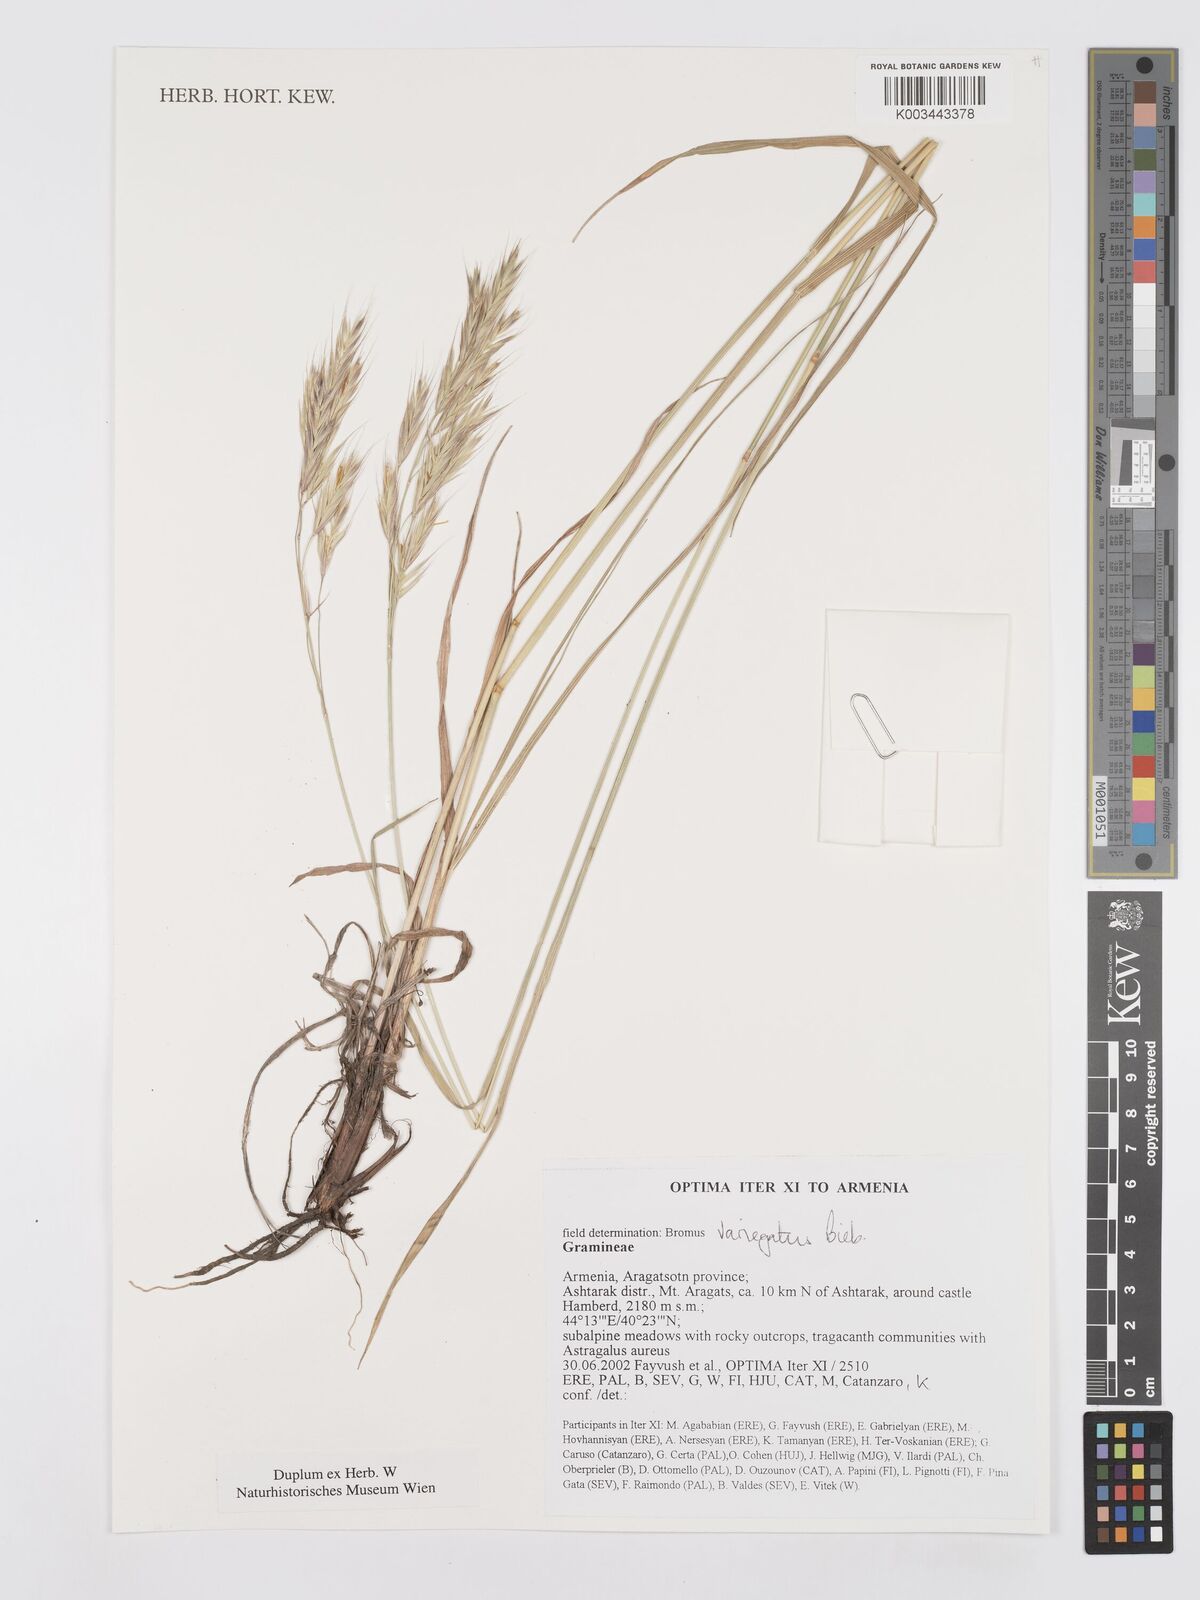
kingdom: Plantae
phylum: Tracheophyta
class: Liliopsida
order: Poales
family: Poaceae
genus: Bromus
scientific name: Bromus variegatus
